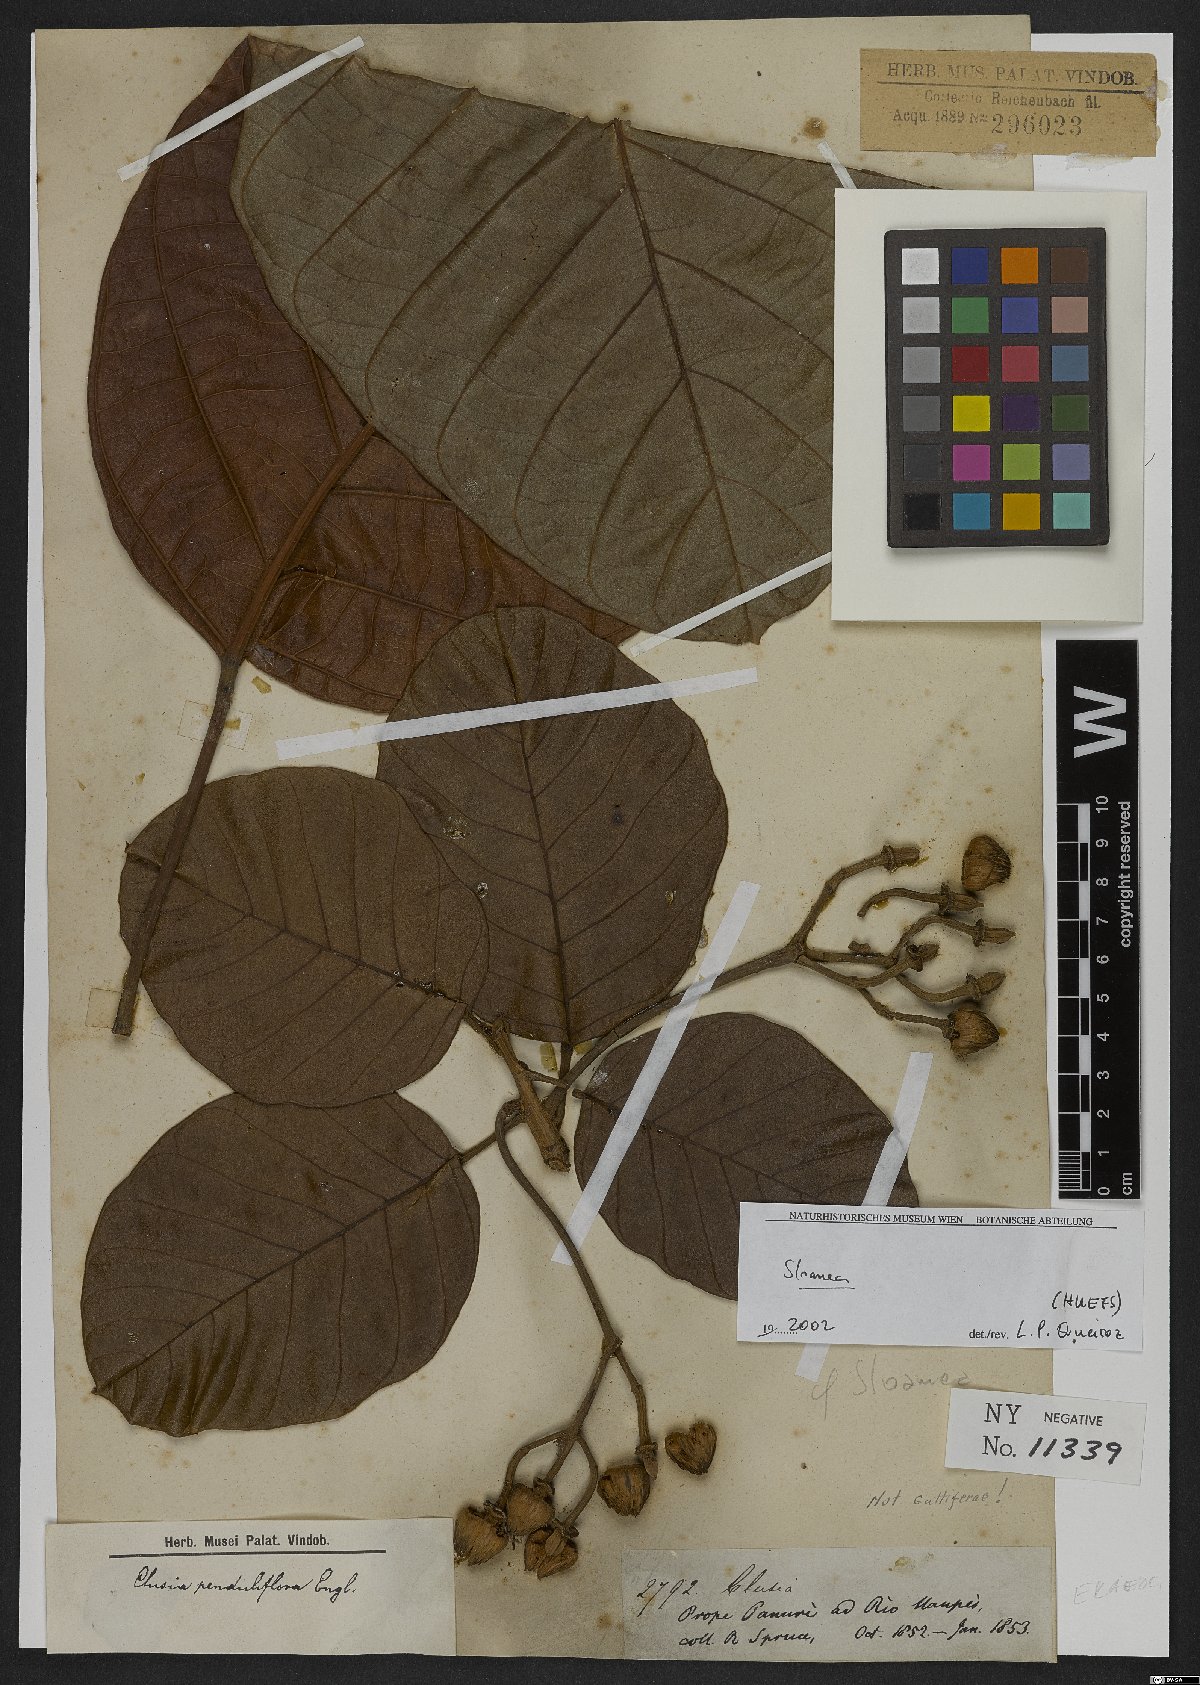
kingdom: Plantae
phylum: Tracheophyta
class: Magnoliopsida
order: Oxalidales
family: Elaeocarpaceae
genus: Sloanea
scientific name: Sloanea
